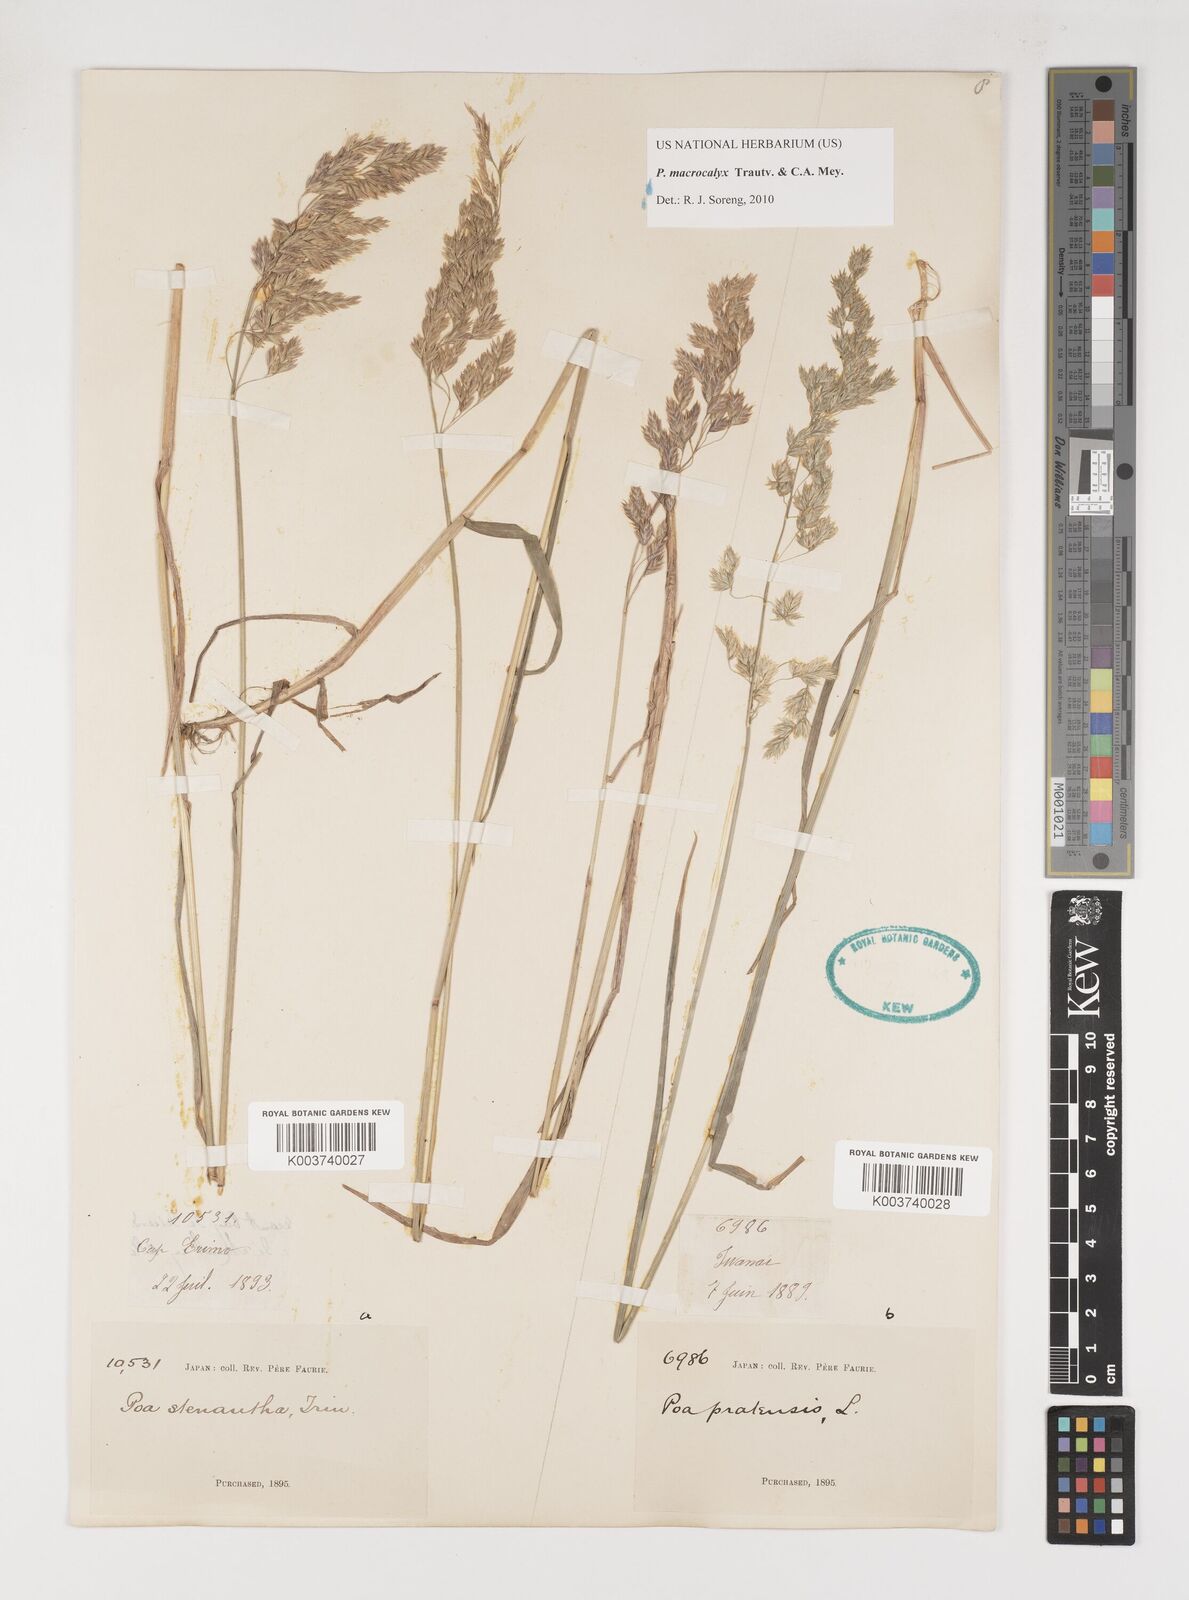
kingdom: Plantae
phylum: Tracheophyta
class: Liliopsida
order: Poales
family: Poaceae
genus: Poa
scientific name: Poa macrocalyx
